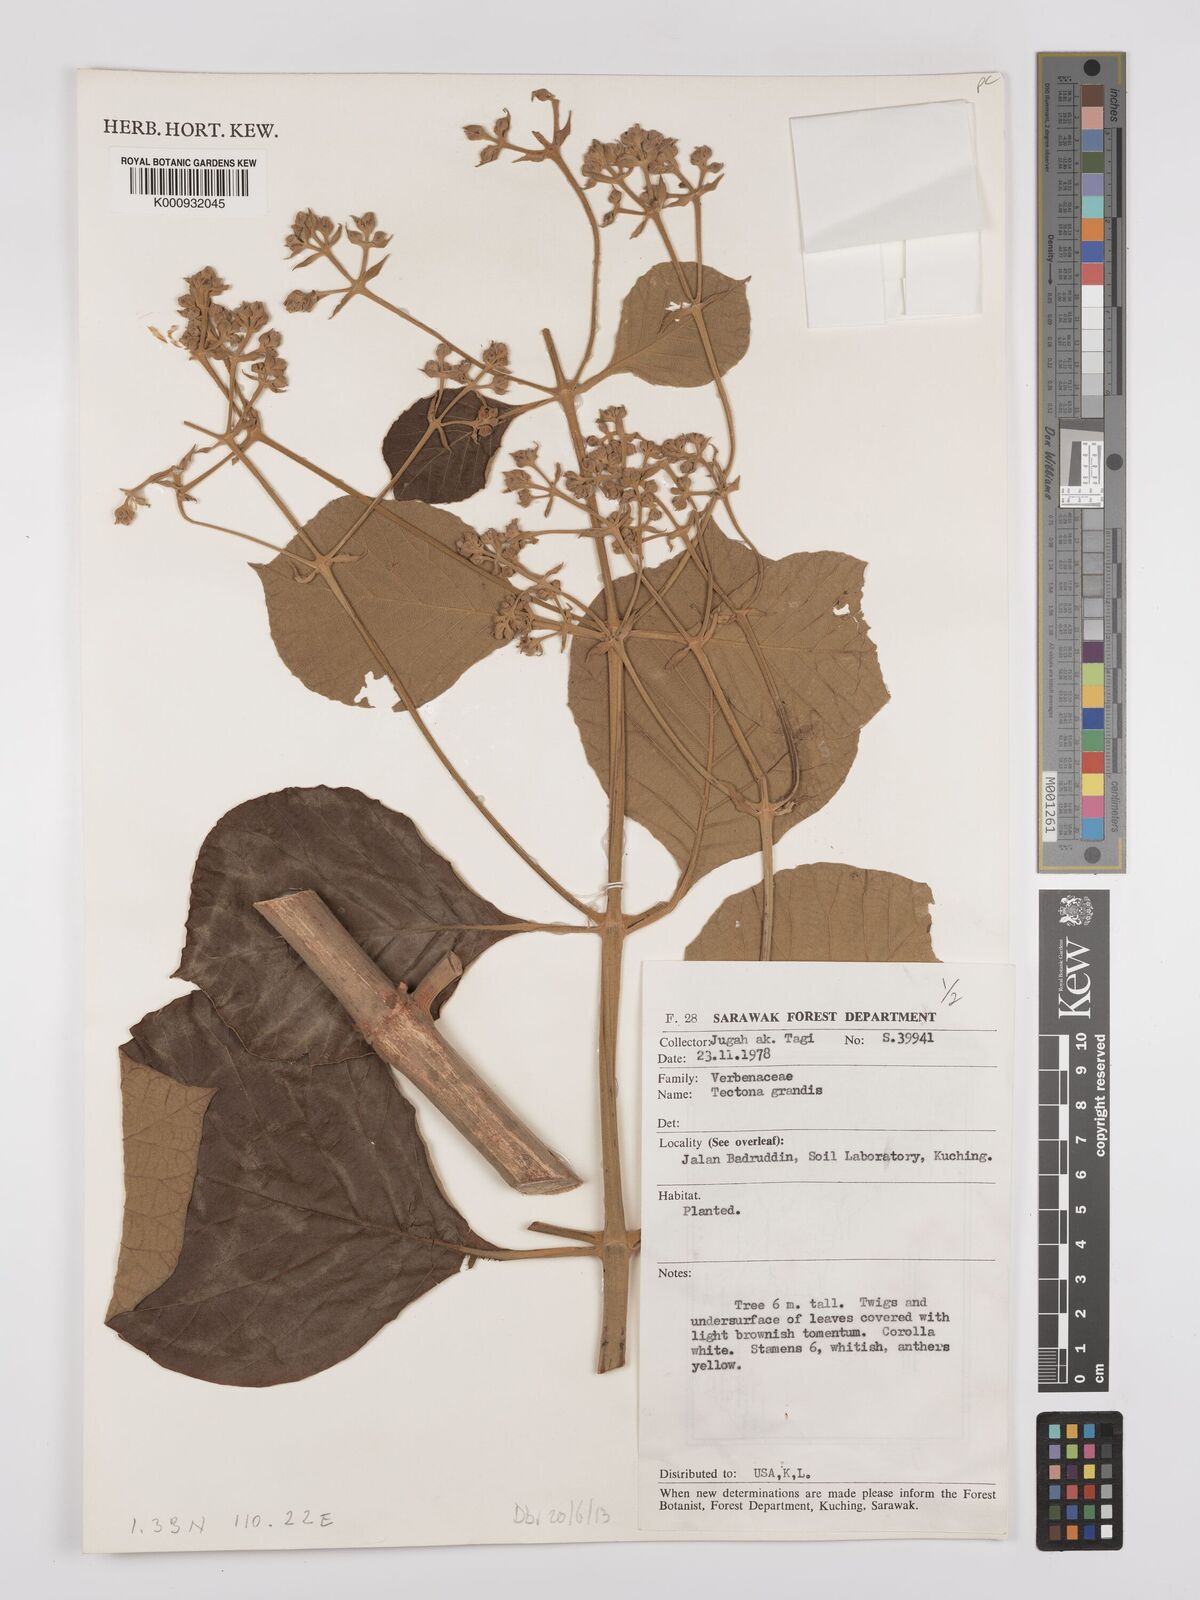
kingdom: Plantae
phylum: Tracheophyta
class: Magnoliopsida
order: Lamiales
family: Lamiaceae
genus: Tectona
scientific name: Tectona grandis
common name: Teak
